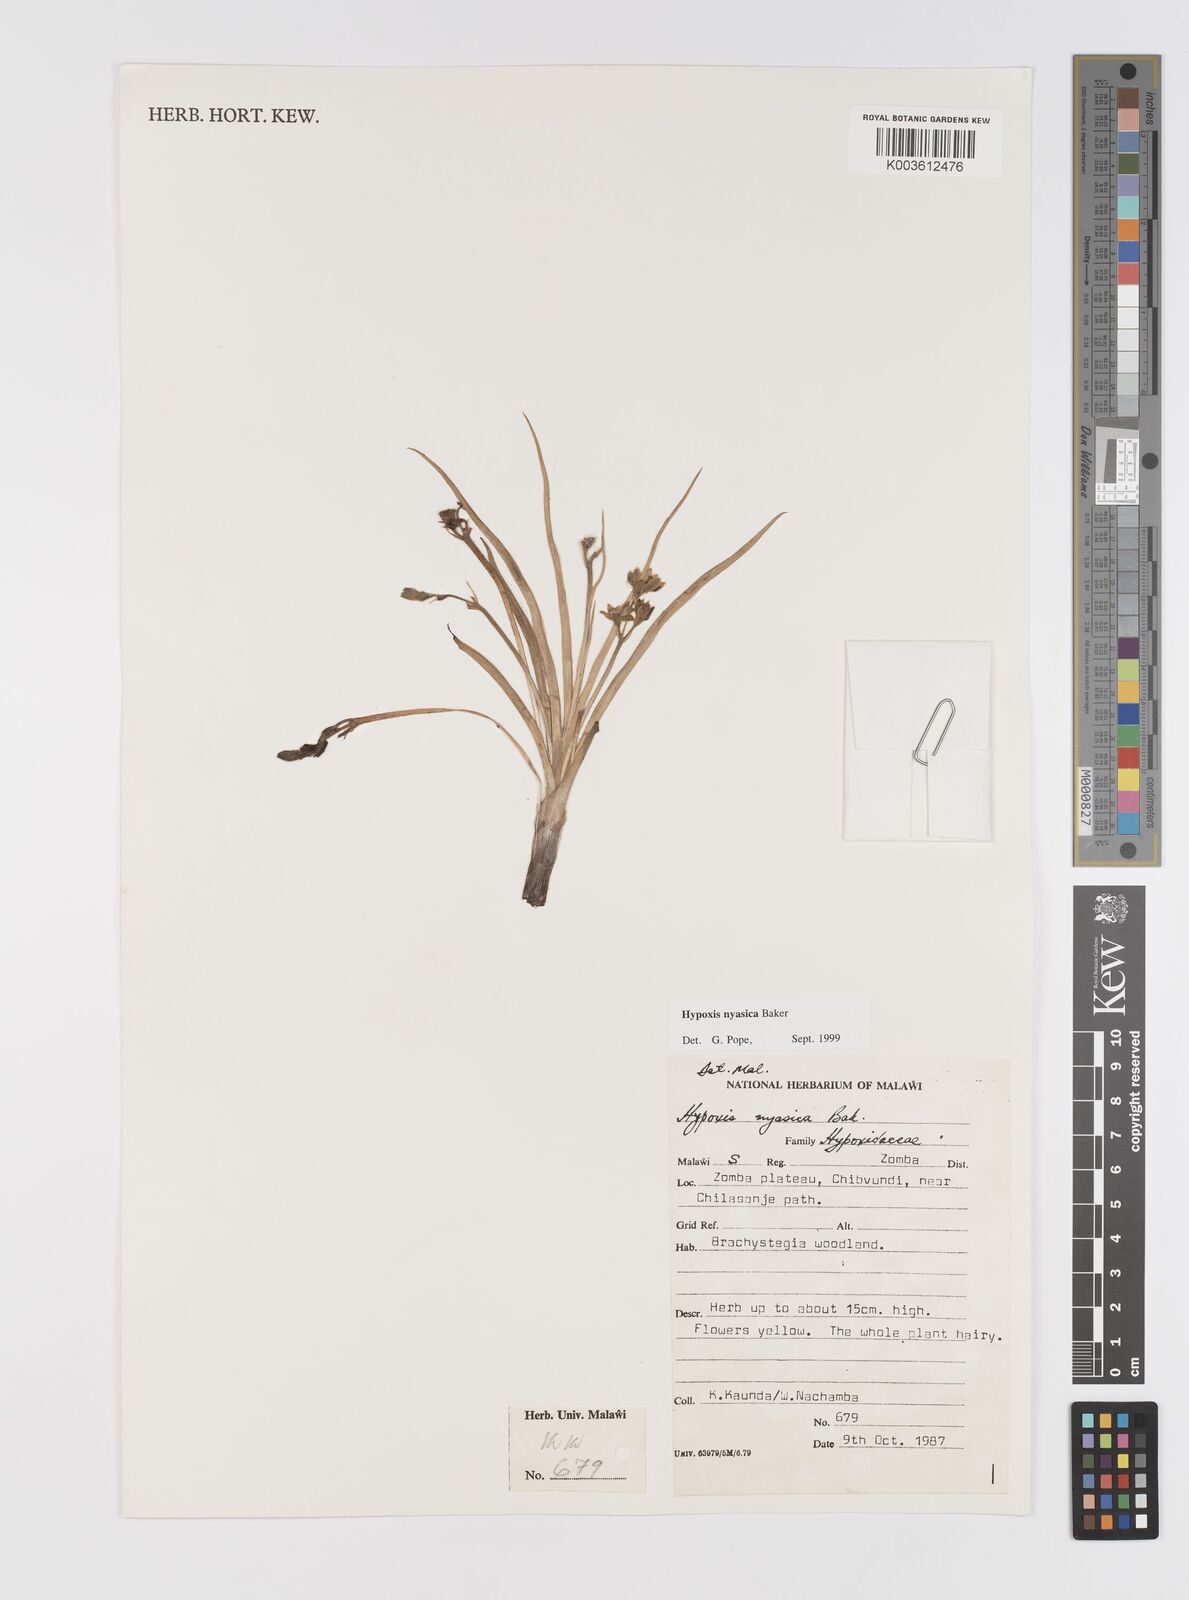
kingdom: Plantae
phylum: Tracheophyta
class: Liliopsida
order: Asparagales
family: Hypoxidaceae
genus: Hypoxis
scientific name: Hypoxis nyasica
